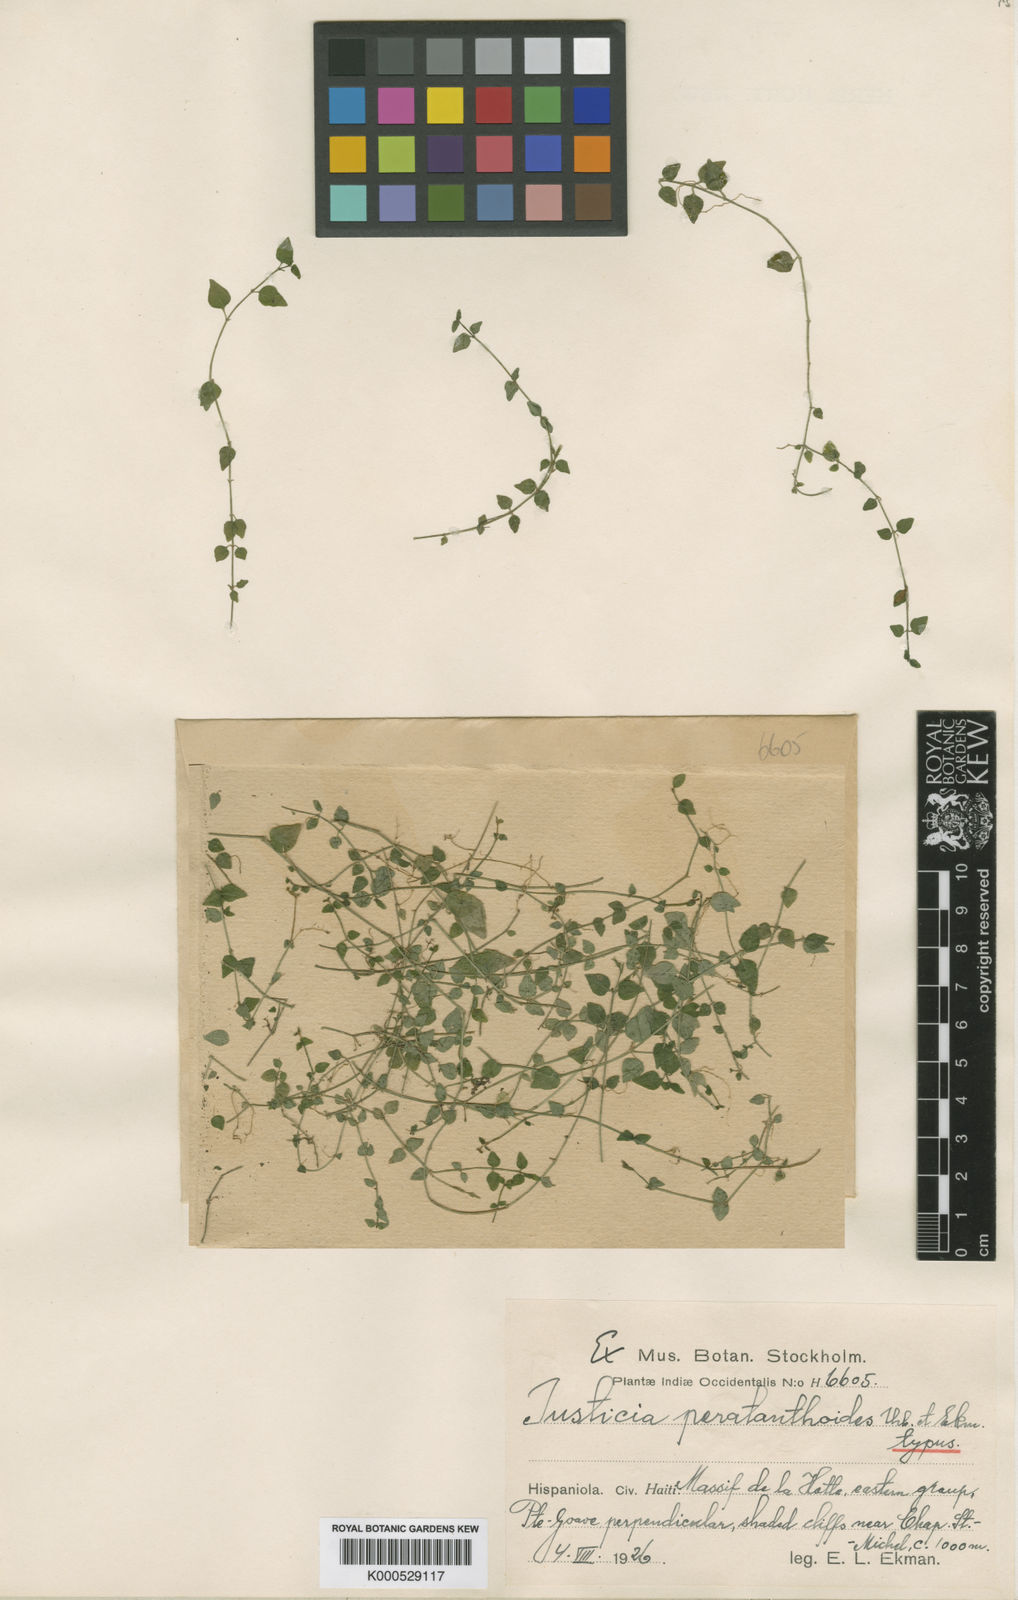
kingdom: Plantae
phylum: Tracheophyta
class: Magnoliopsida
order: Lamiales
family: Acanthaceae
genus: Justicia
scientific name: Justicia peratanthoides
